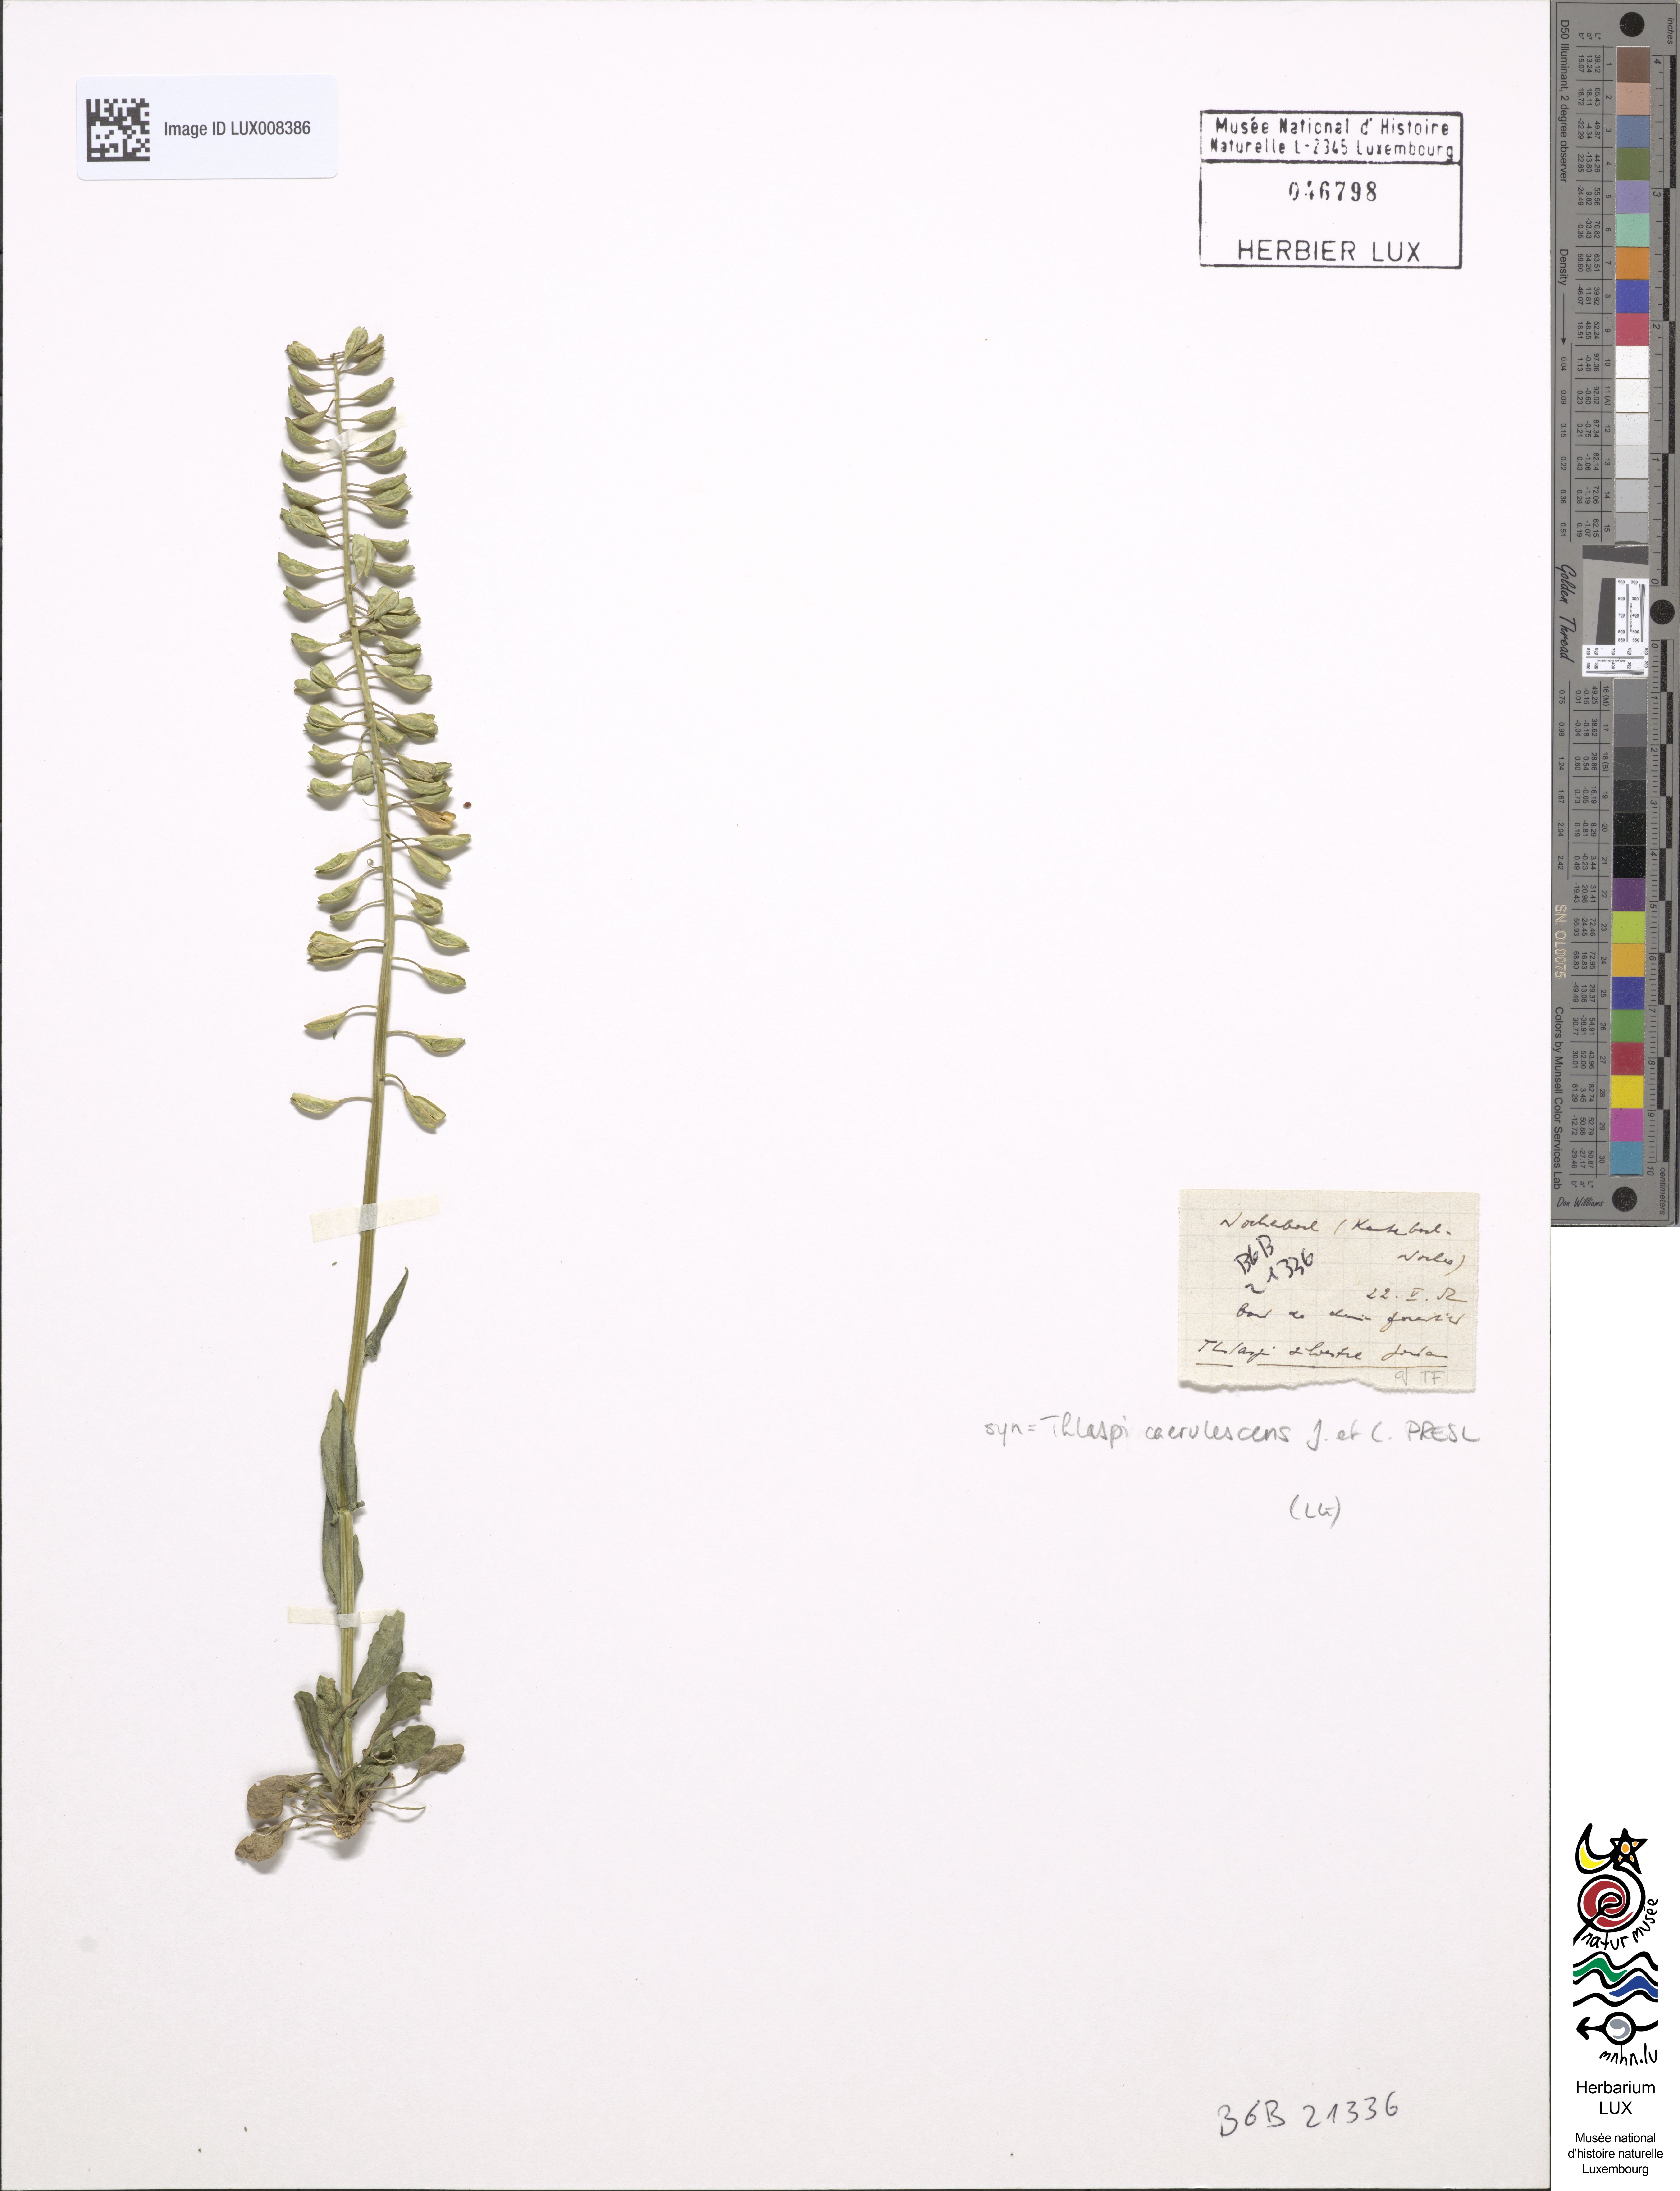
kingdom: Plantae
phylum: Tracheophyta
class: Magnoliopsida
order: Brassicales
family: Brassicaceae
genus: Noccaea
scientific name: Noccaea caerulescens
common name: Alpine pennycress
